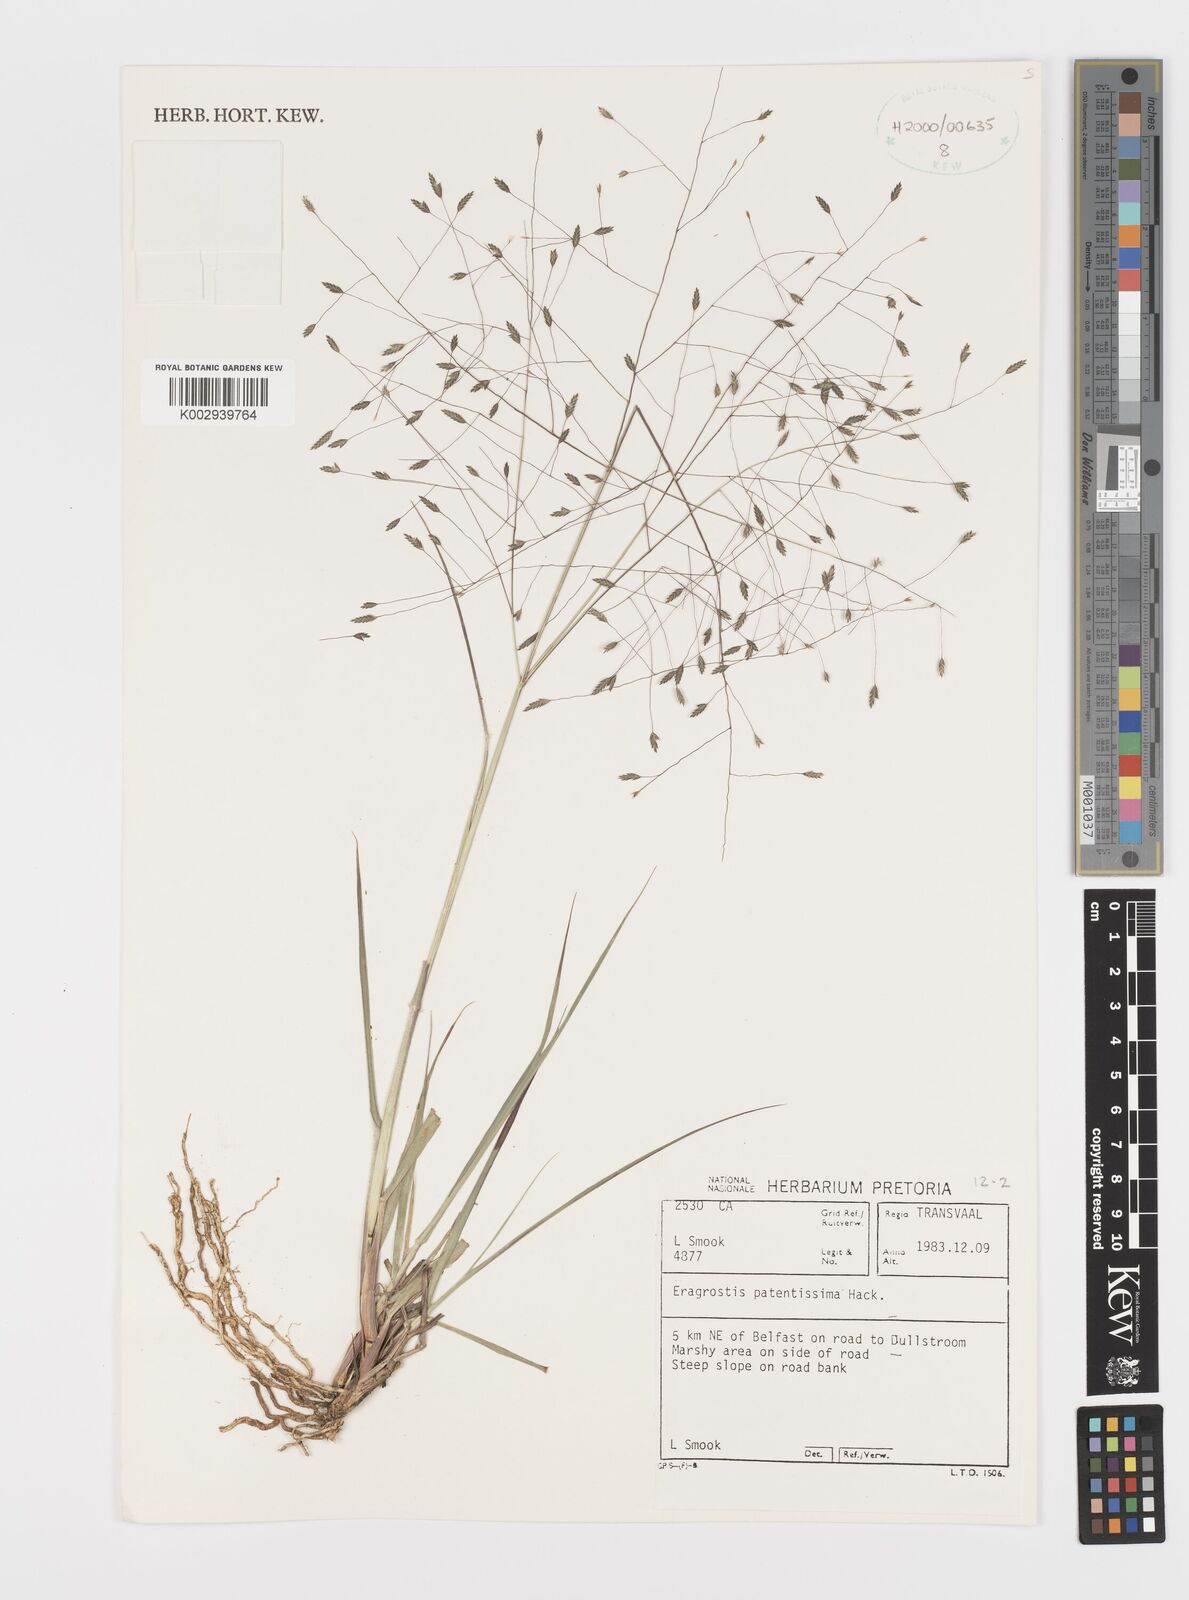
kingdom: Plantae
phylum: Tracheophyta
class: Liliopsida
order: Poales
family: Poaceae
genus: Eragrostis
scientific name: Eragrostis patentissima
